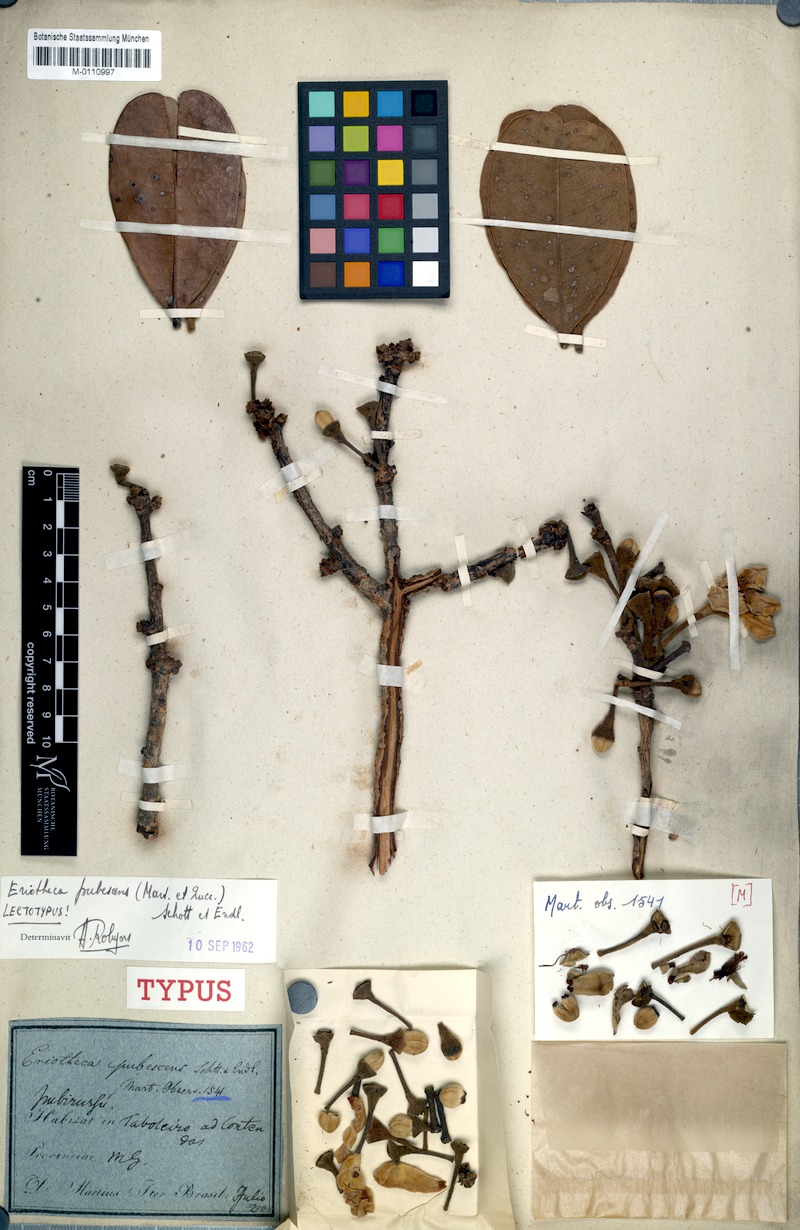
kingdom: Plantae
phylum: Tracheophyta
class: Magnoliopsida
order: Malvales
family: Malvaceae
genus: Eriotheca
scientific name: Eriotheca pubescens
